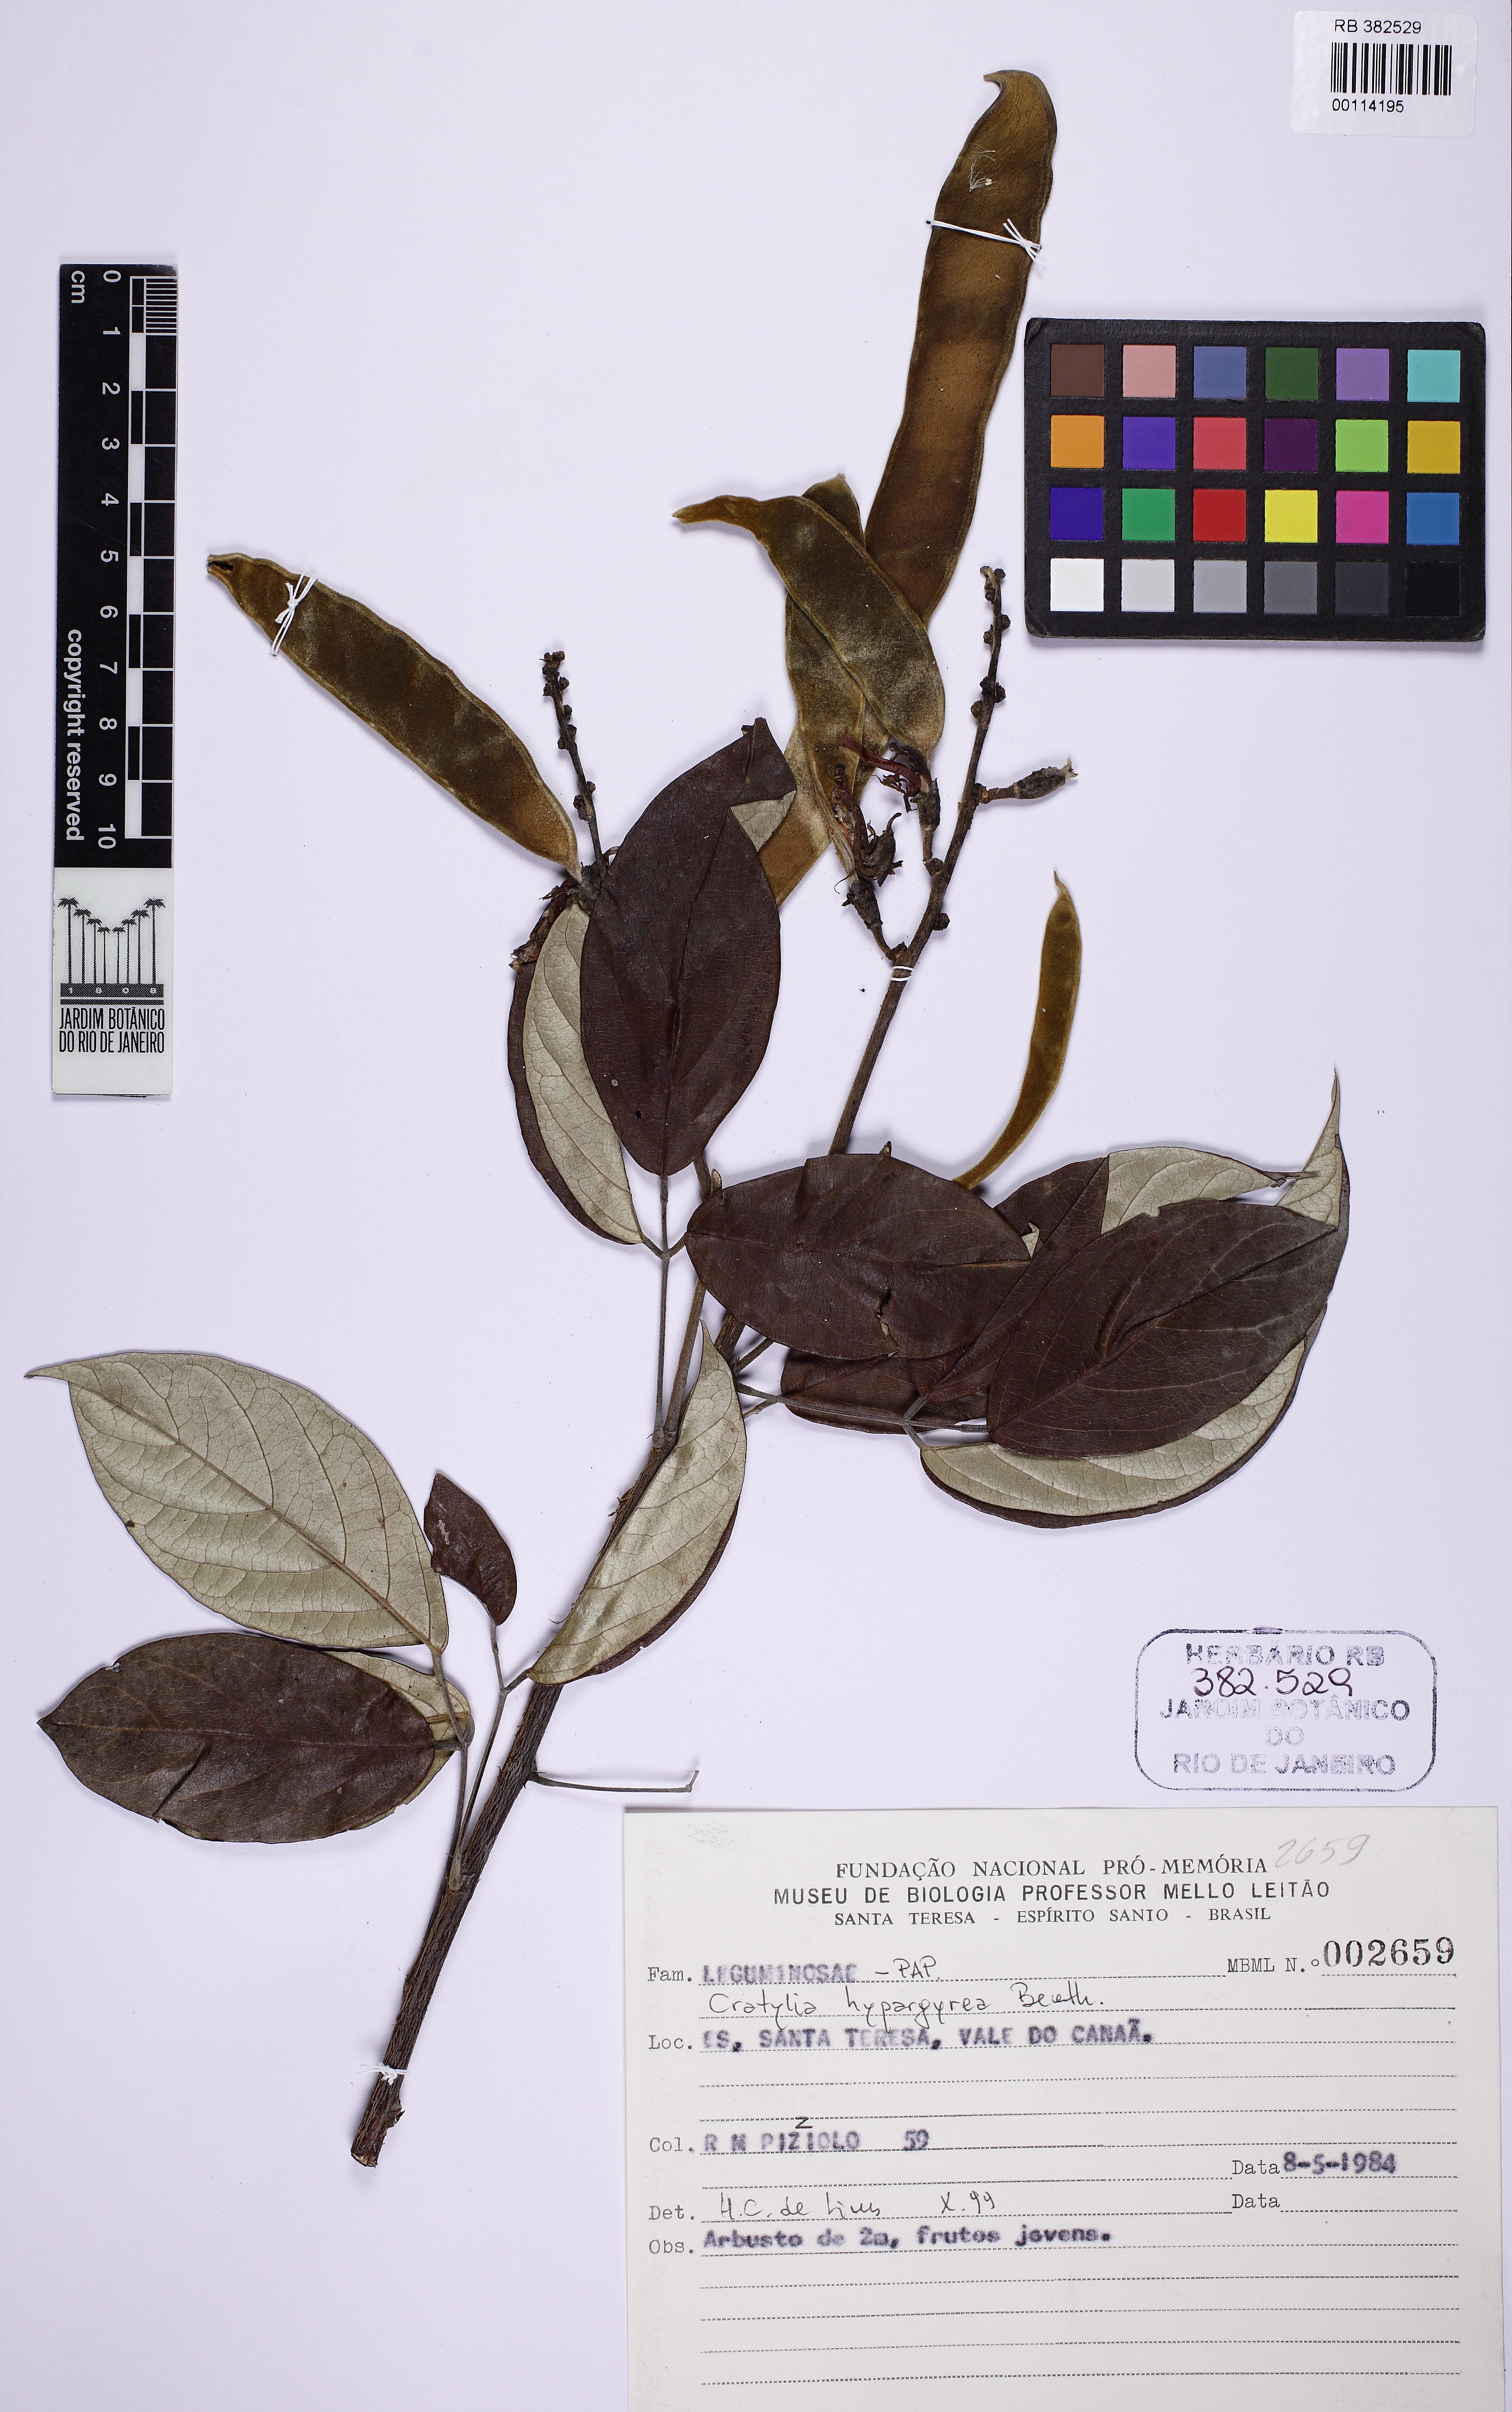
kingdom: Plantae
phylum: Tracheophyta
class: Magnoliopsida
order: Fabales
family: Fabaceae
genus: Cratylia
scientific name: Cratylia hypargyrea
